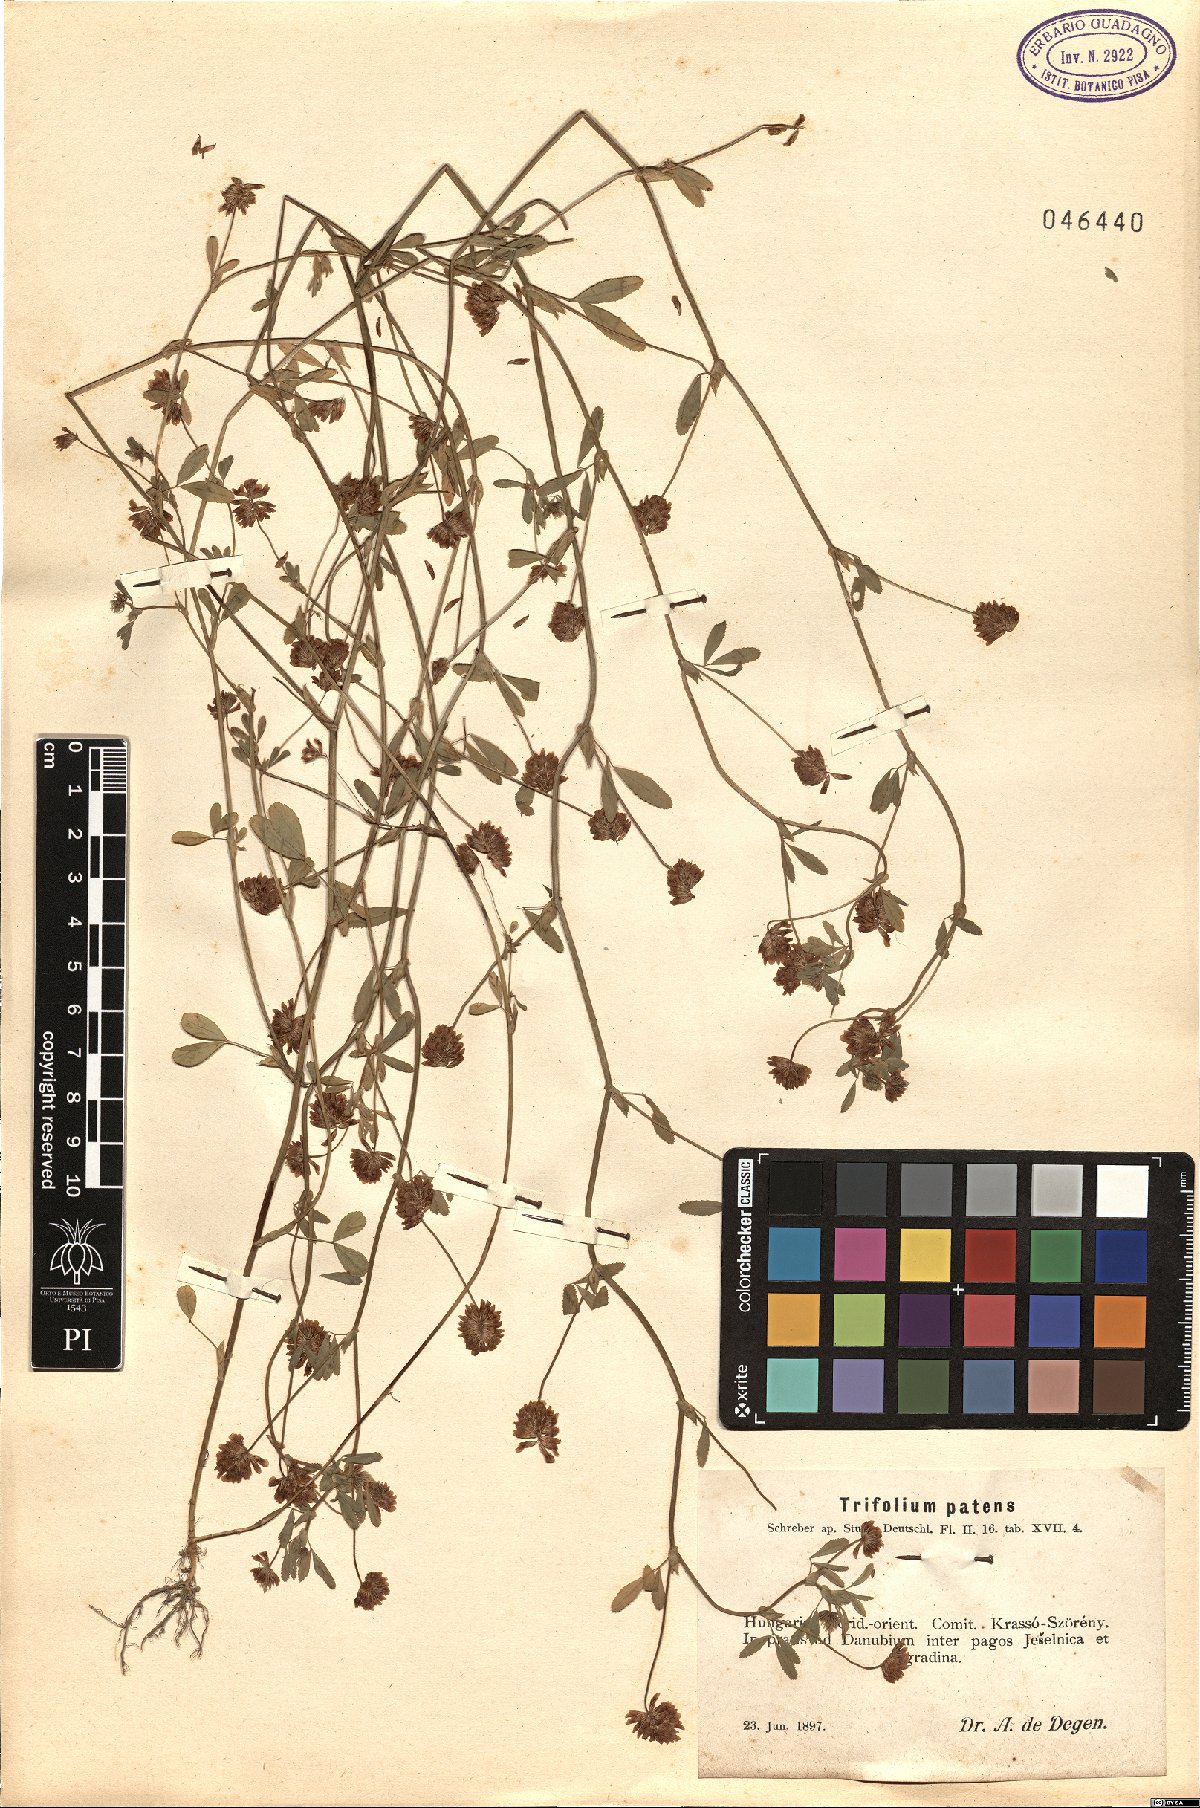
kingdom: Plantae
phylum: Tracheophyta
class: Magnoliopsida
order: Fabales
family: Fabaceae
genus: Trifolium
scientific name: Trifolium patens
